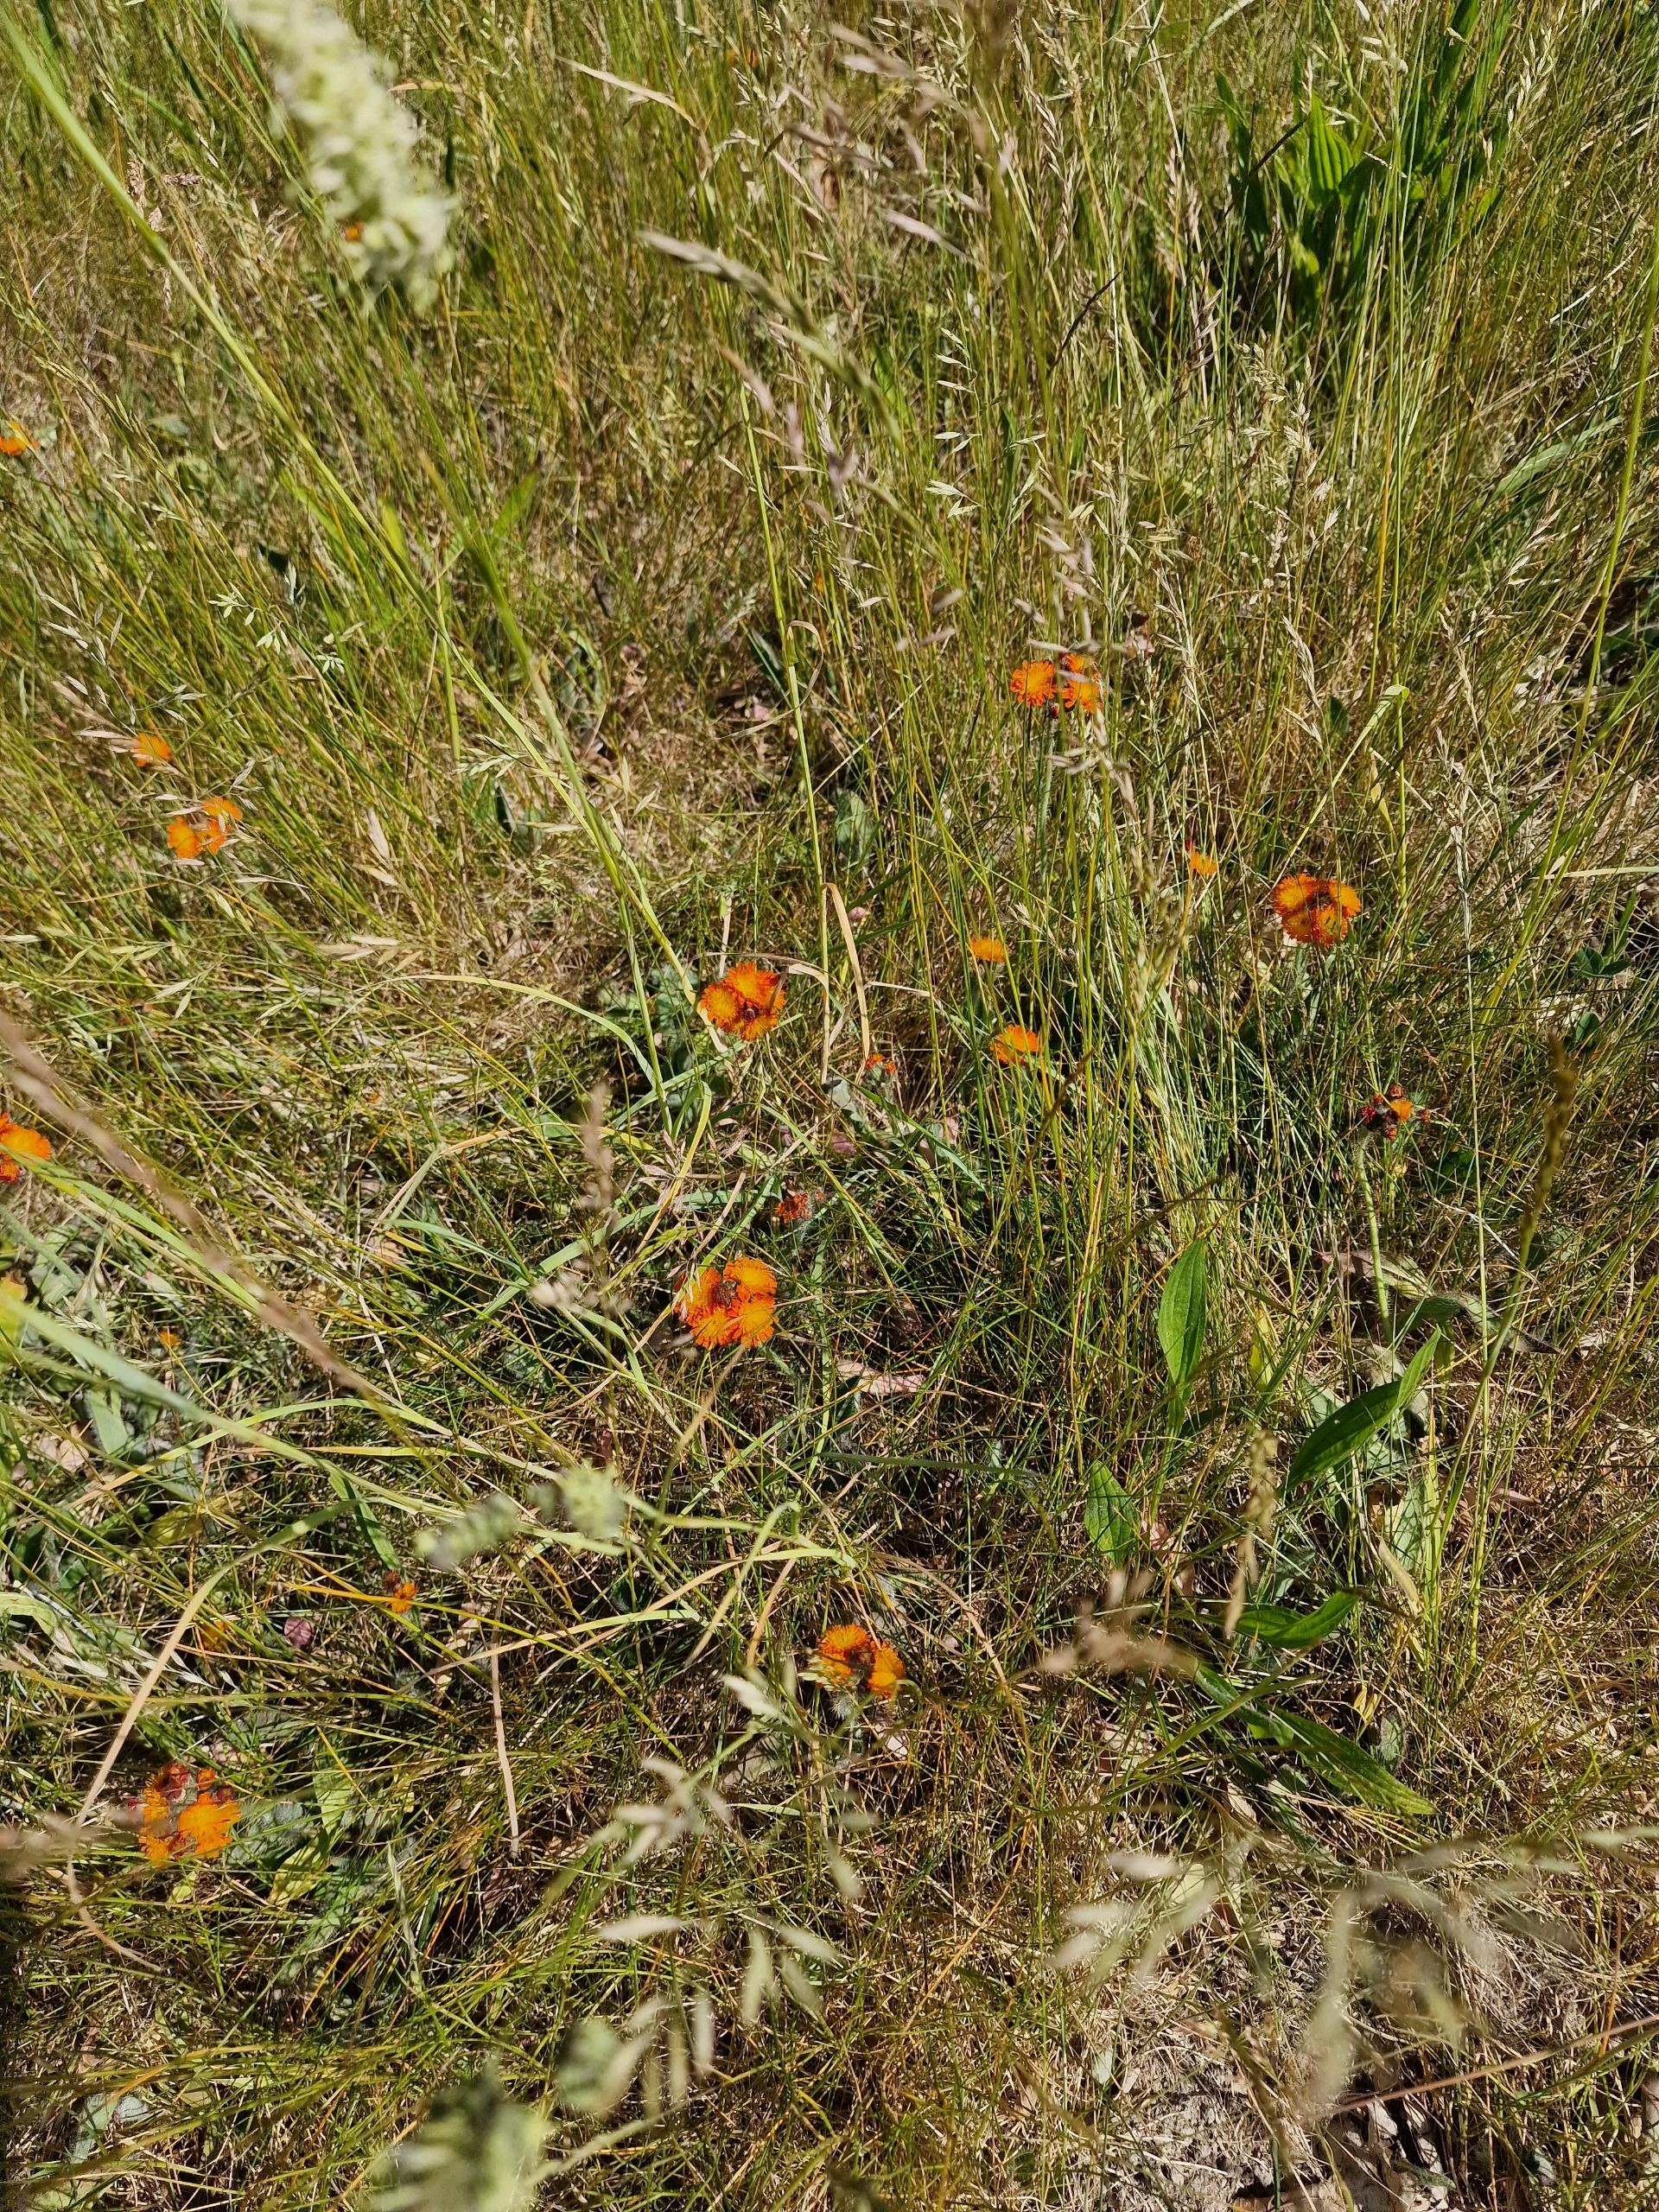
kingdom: Plantae
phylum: Tracheophyta
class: Magnoliopsida
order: Asterales
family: Asteraceae
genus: Pilosella
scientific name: Pilosella aurantiaca
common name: Pomerans-høgeurt
